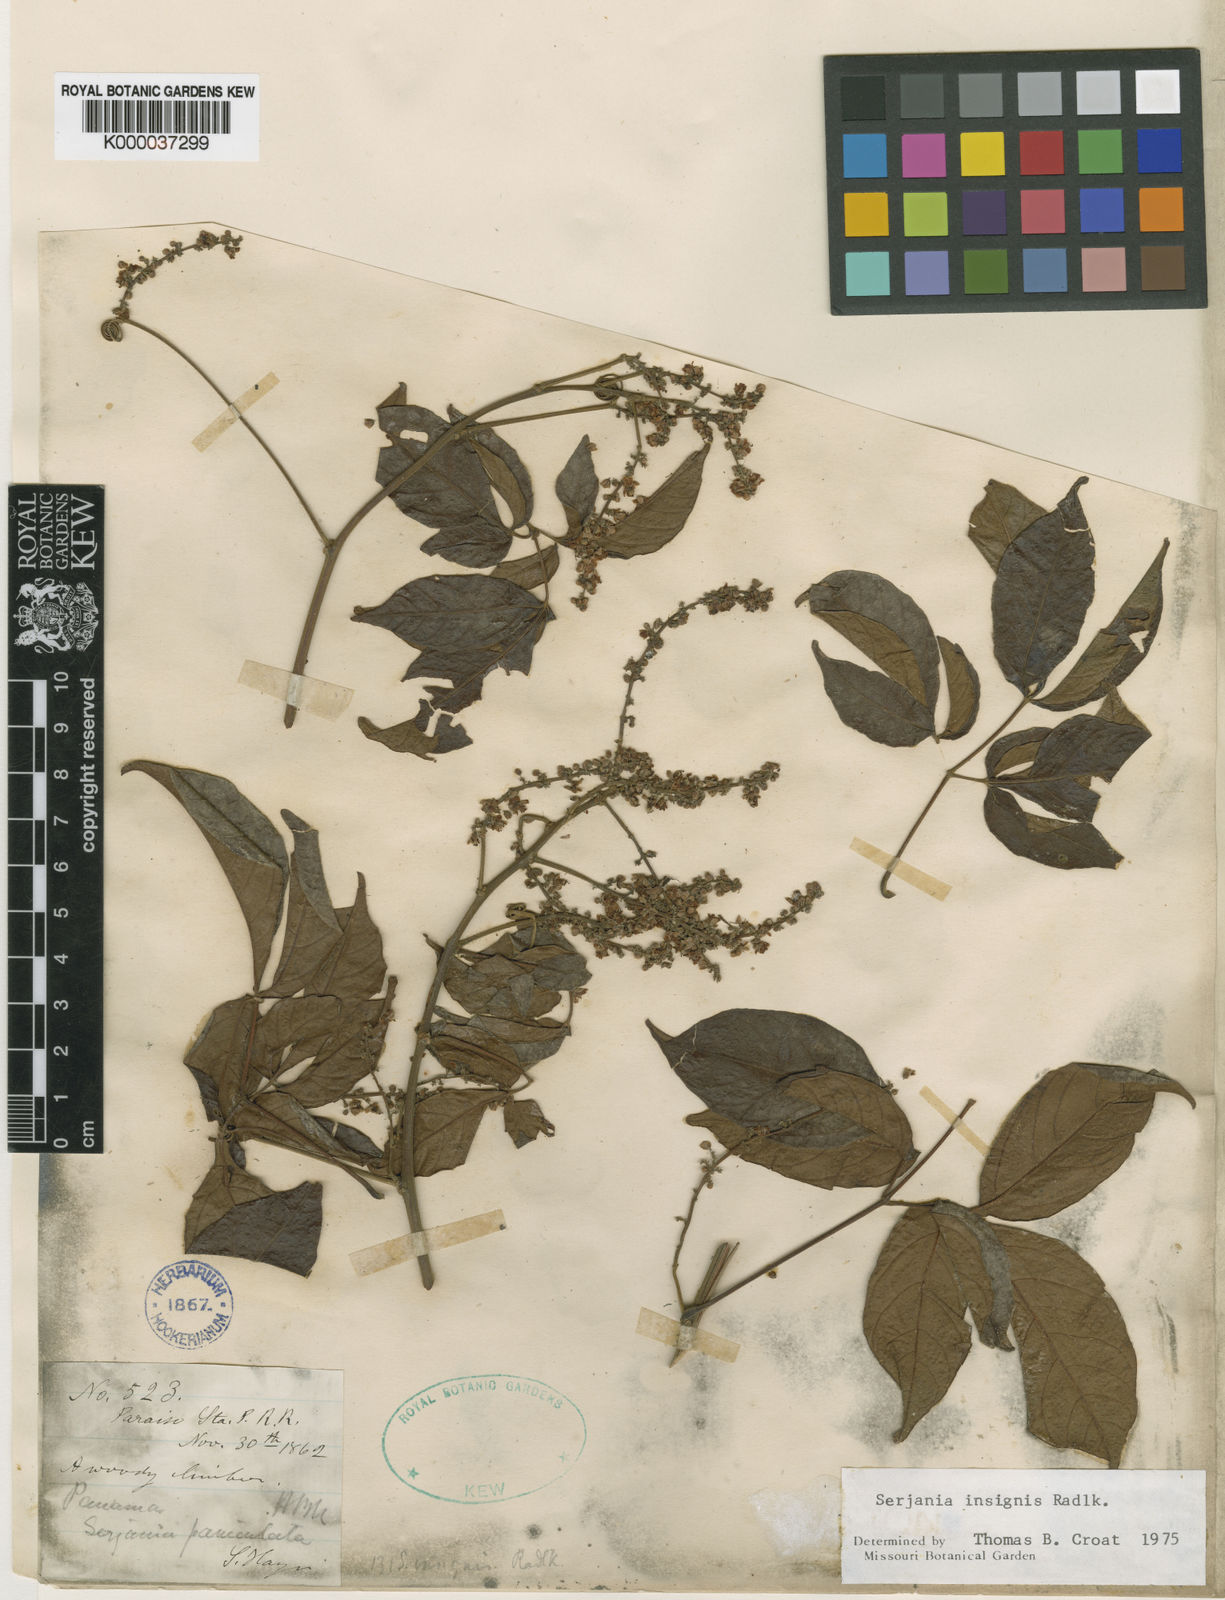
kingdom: Plantae
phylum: Tracheophyta
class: Magnoliopsida
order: Sapindales
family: Sapindaceae
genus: Serjania
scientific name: Serjania acuta
